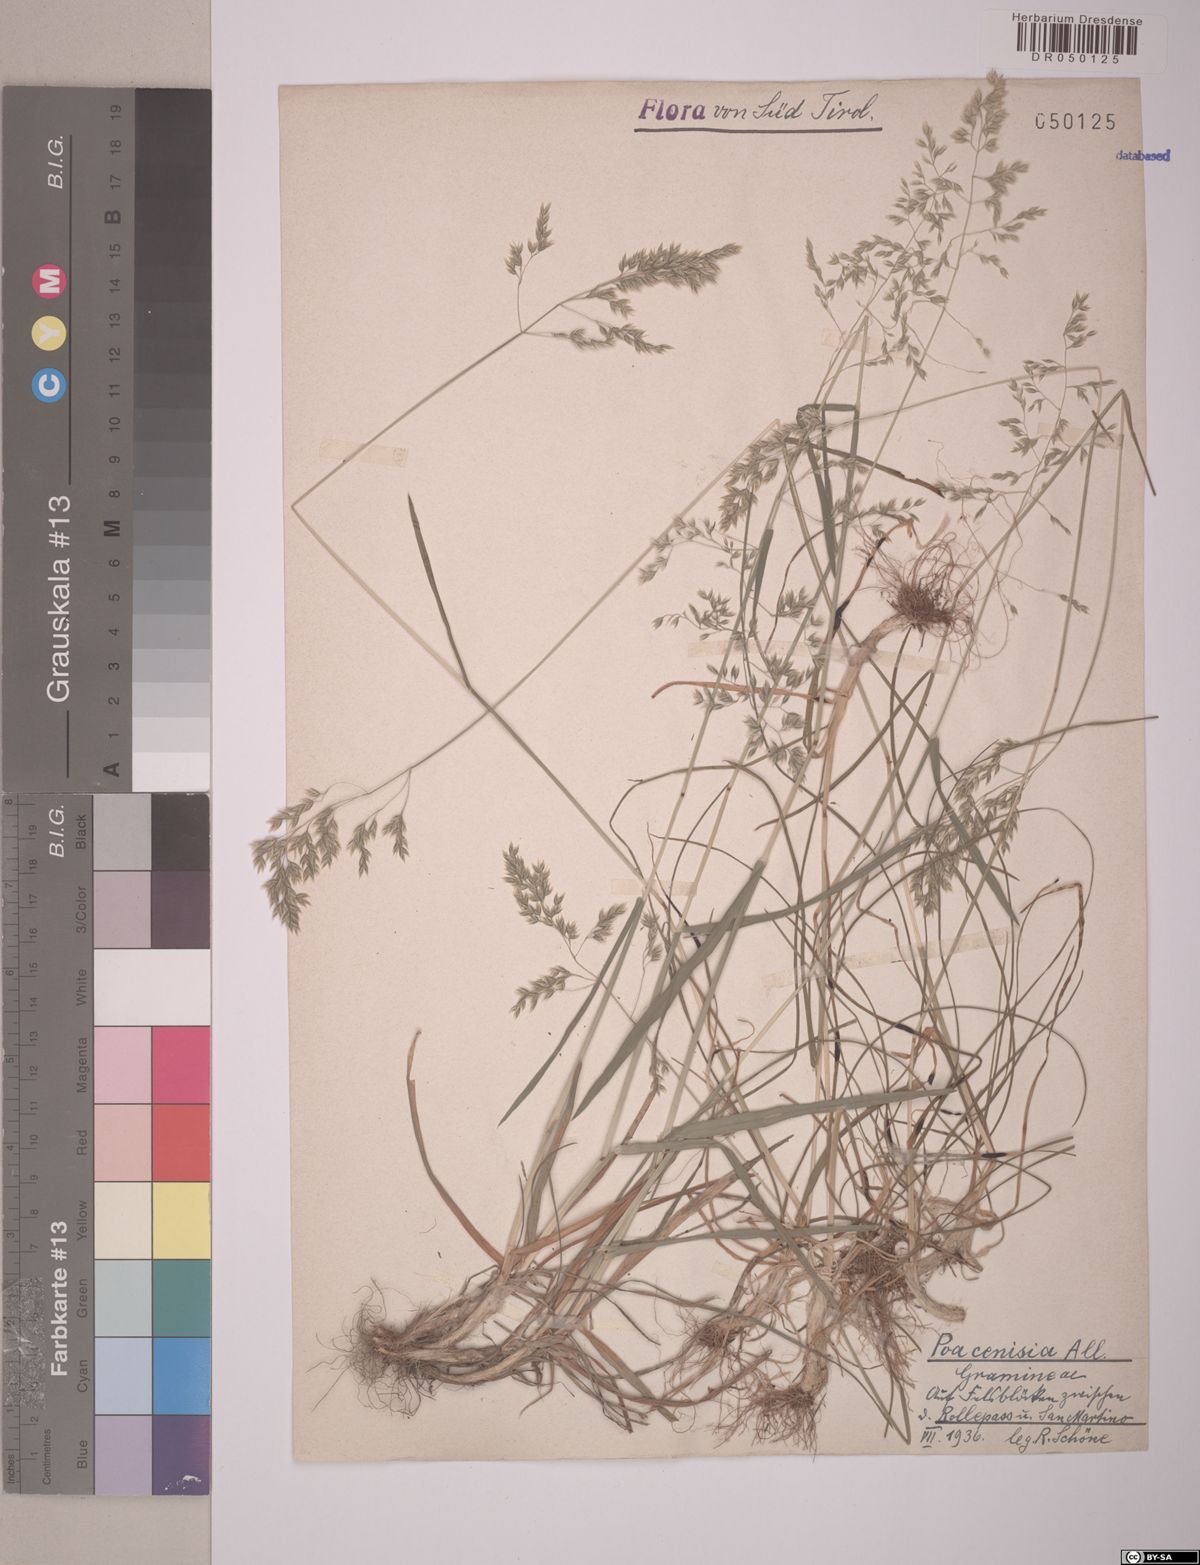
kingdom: Plantae
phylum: Tracheophyta
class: Liliopsida
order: Poales
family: Poaceae
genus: Poa
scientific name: Poa cenisia
